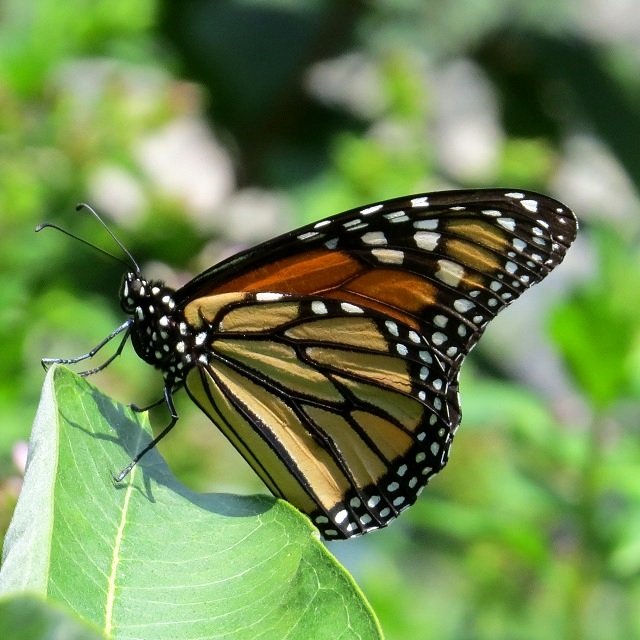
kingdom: Animalia
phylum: Arthropoda
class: Insecta
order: Lepidoptera
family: Nymphalidae
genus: Danaus
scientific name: Danaus plexippus
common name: Monarch
